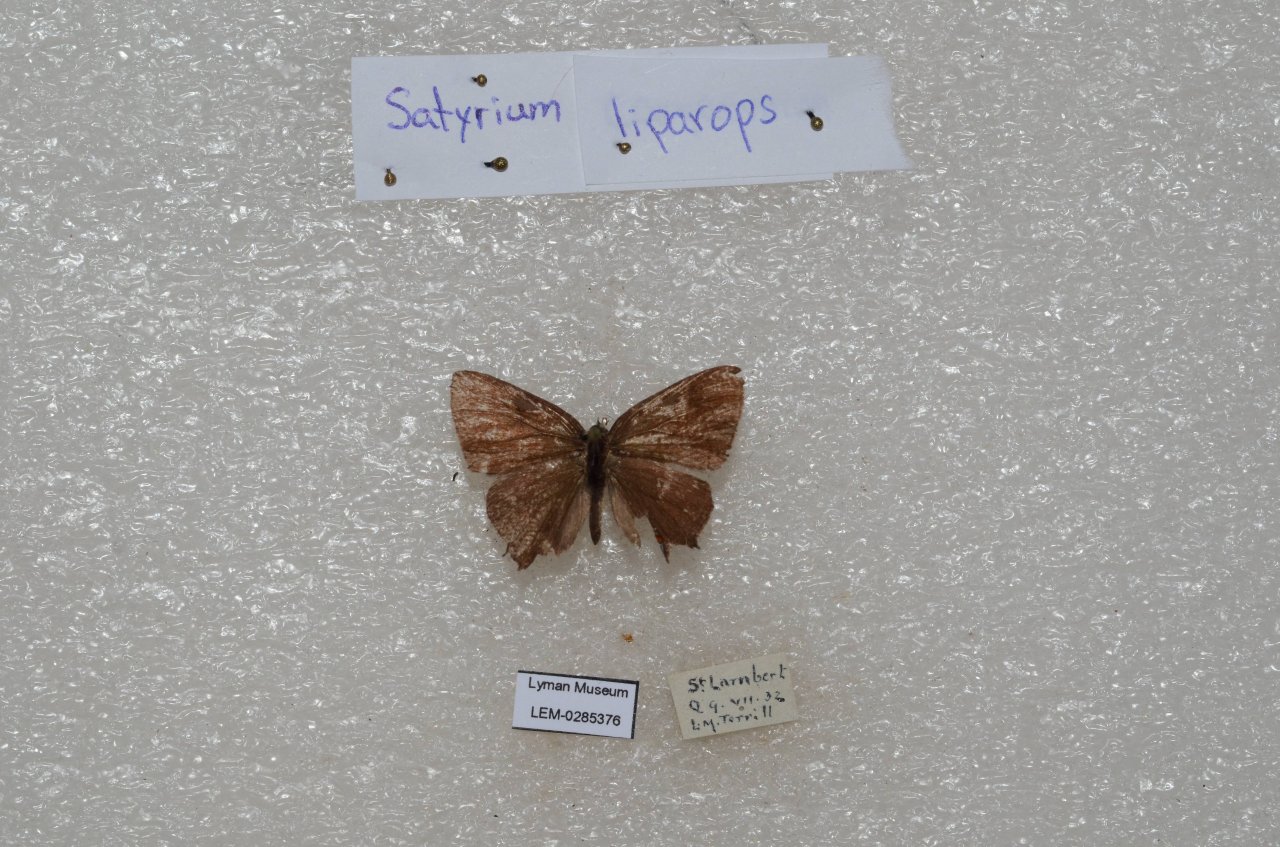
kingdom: Animalia
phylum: Arthropoda
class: Insecta
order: Lepidoptera
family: Lycaenidae
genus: Satyrium
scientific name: Satyrium liparops
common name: Striped Hairstreak
